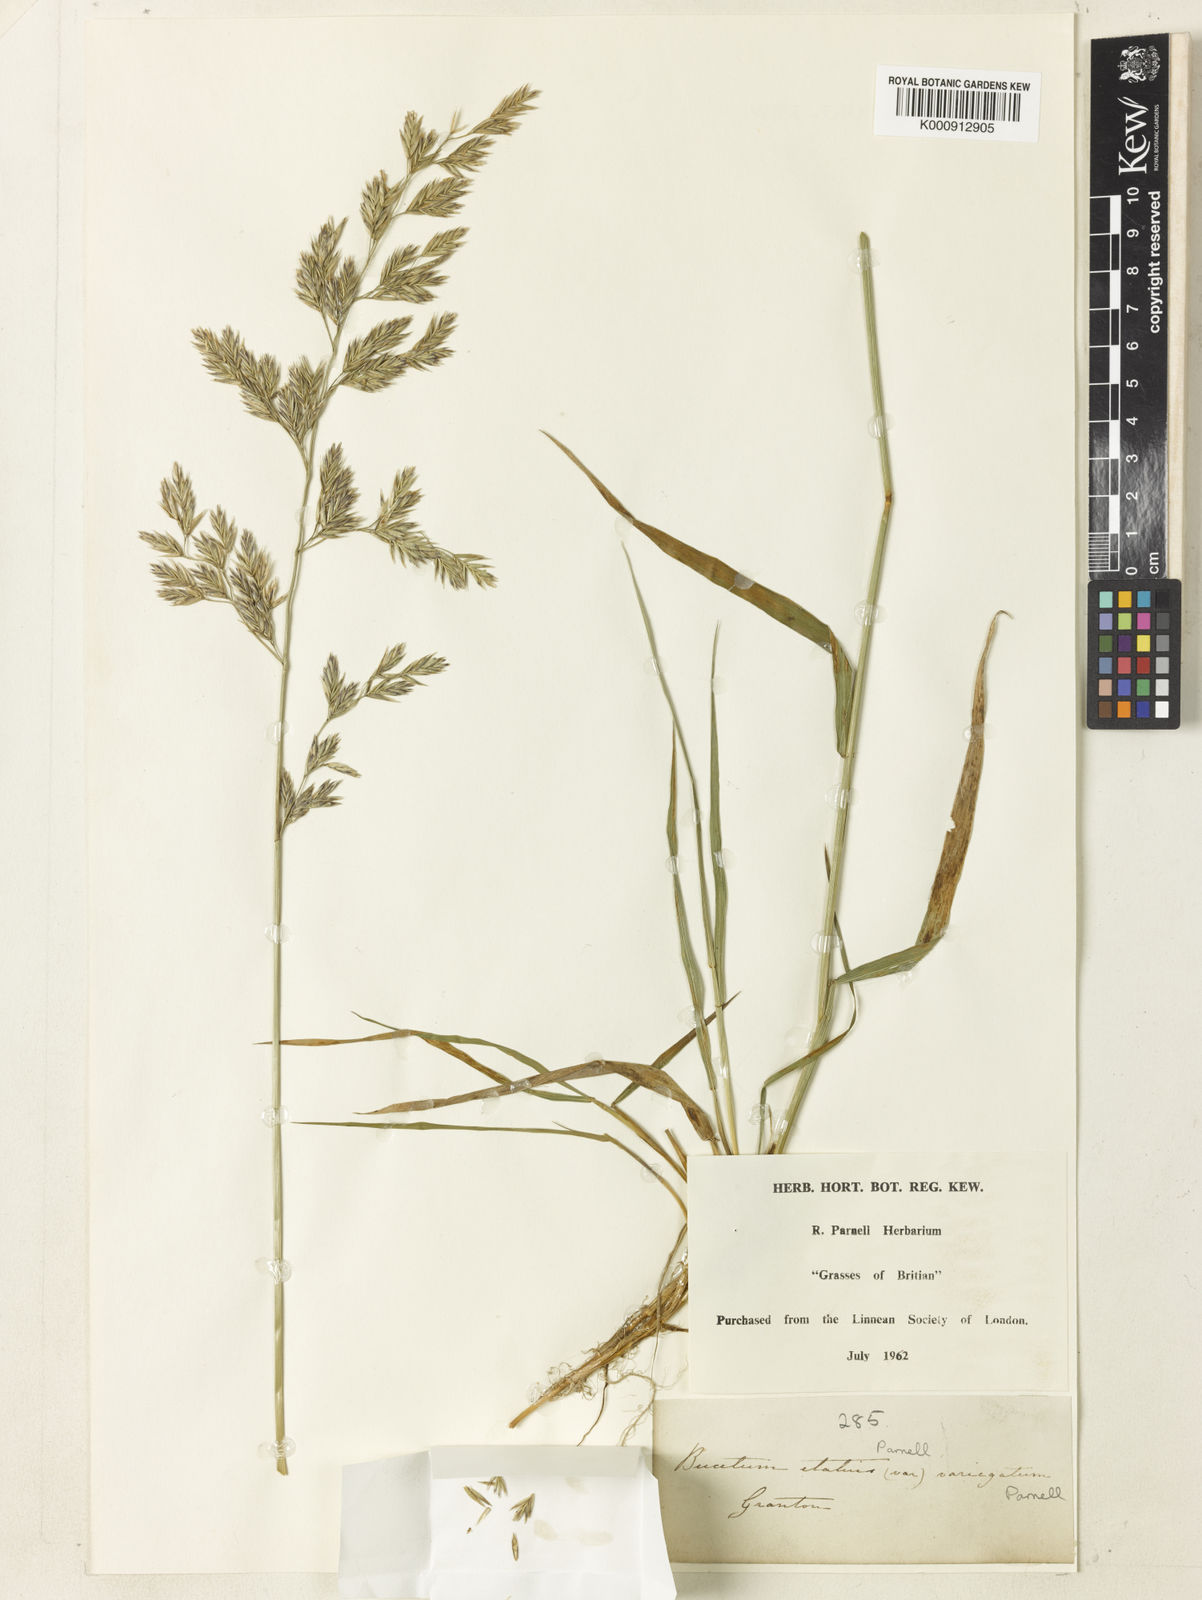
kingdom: Plantae
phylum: Tracheophyta
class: Liliopsida
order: Poales
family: Poaceae
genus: Lolium
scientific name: Lolium arundinaceum
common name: Reed fescue
